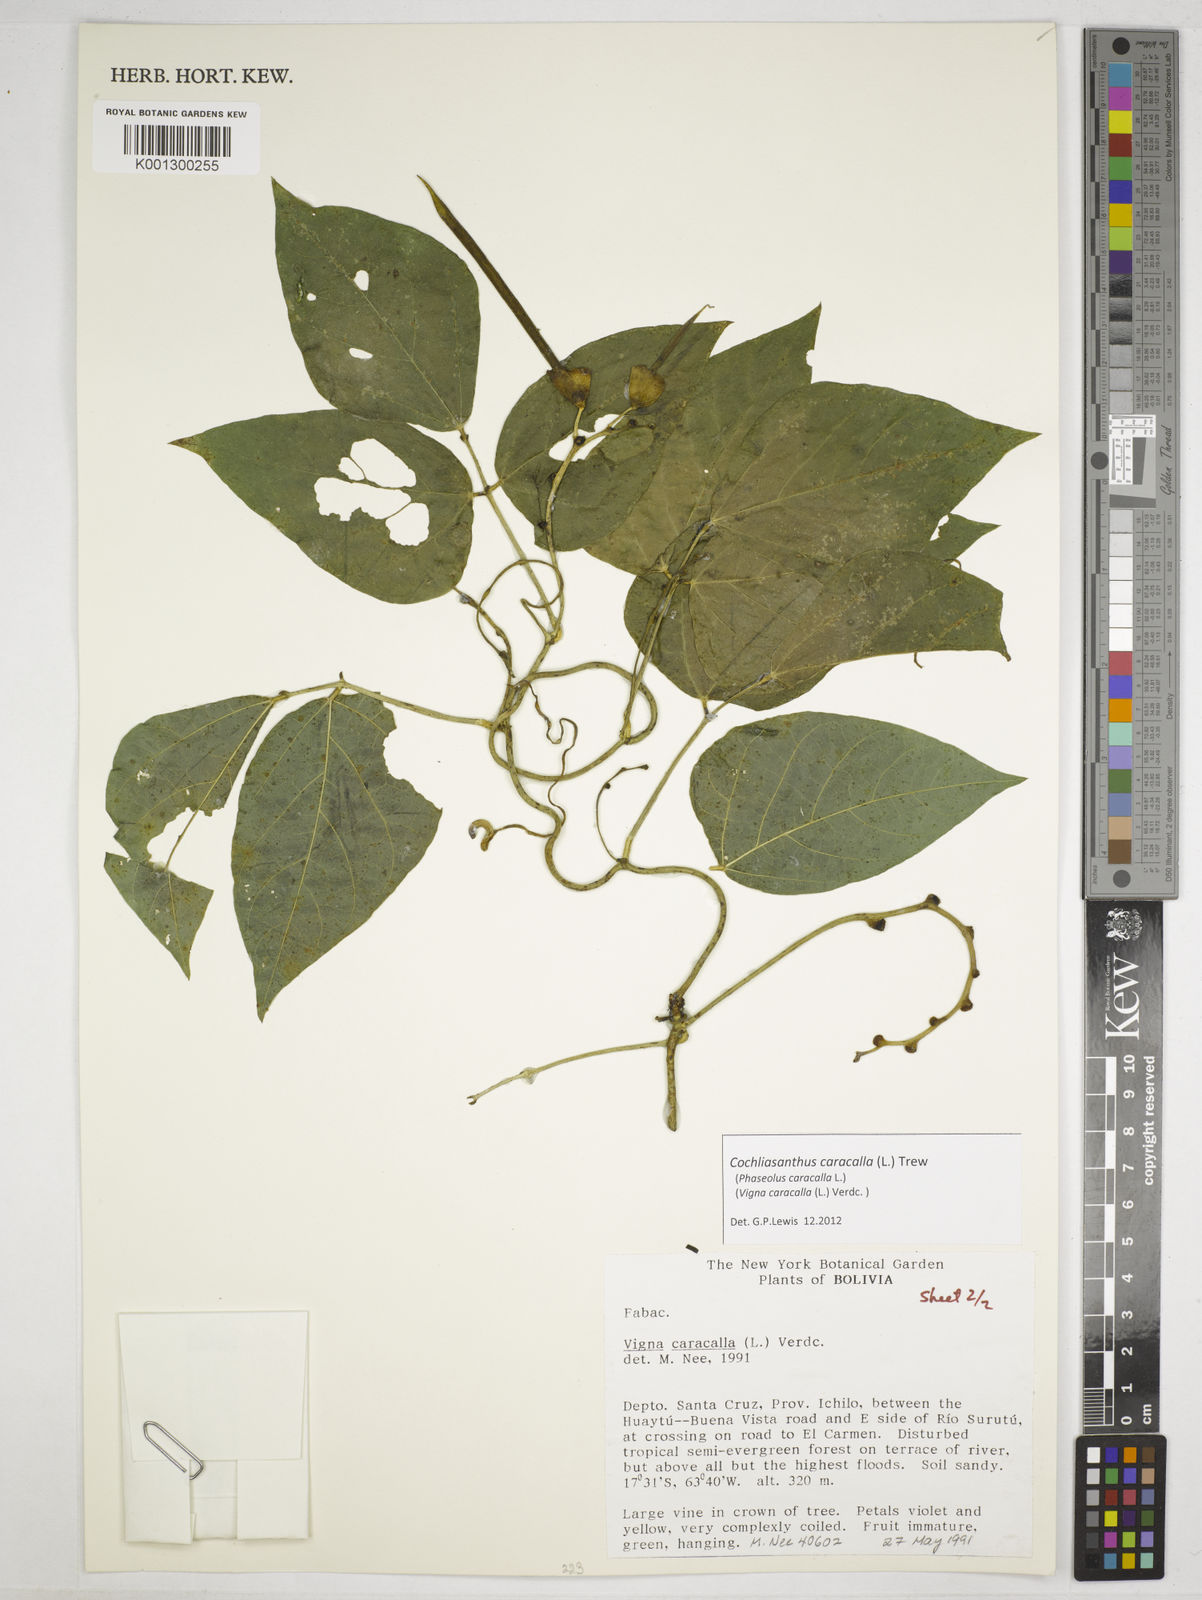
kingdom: Plantae
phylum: Tracheophyta
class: Magnoliopsida
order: Fabales
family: Fabaceae
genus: Cochliasanthus
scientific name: Cochliasanthus caracalla
